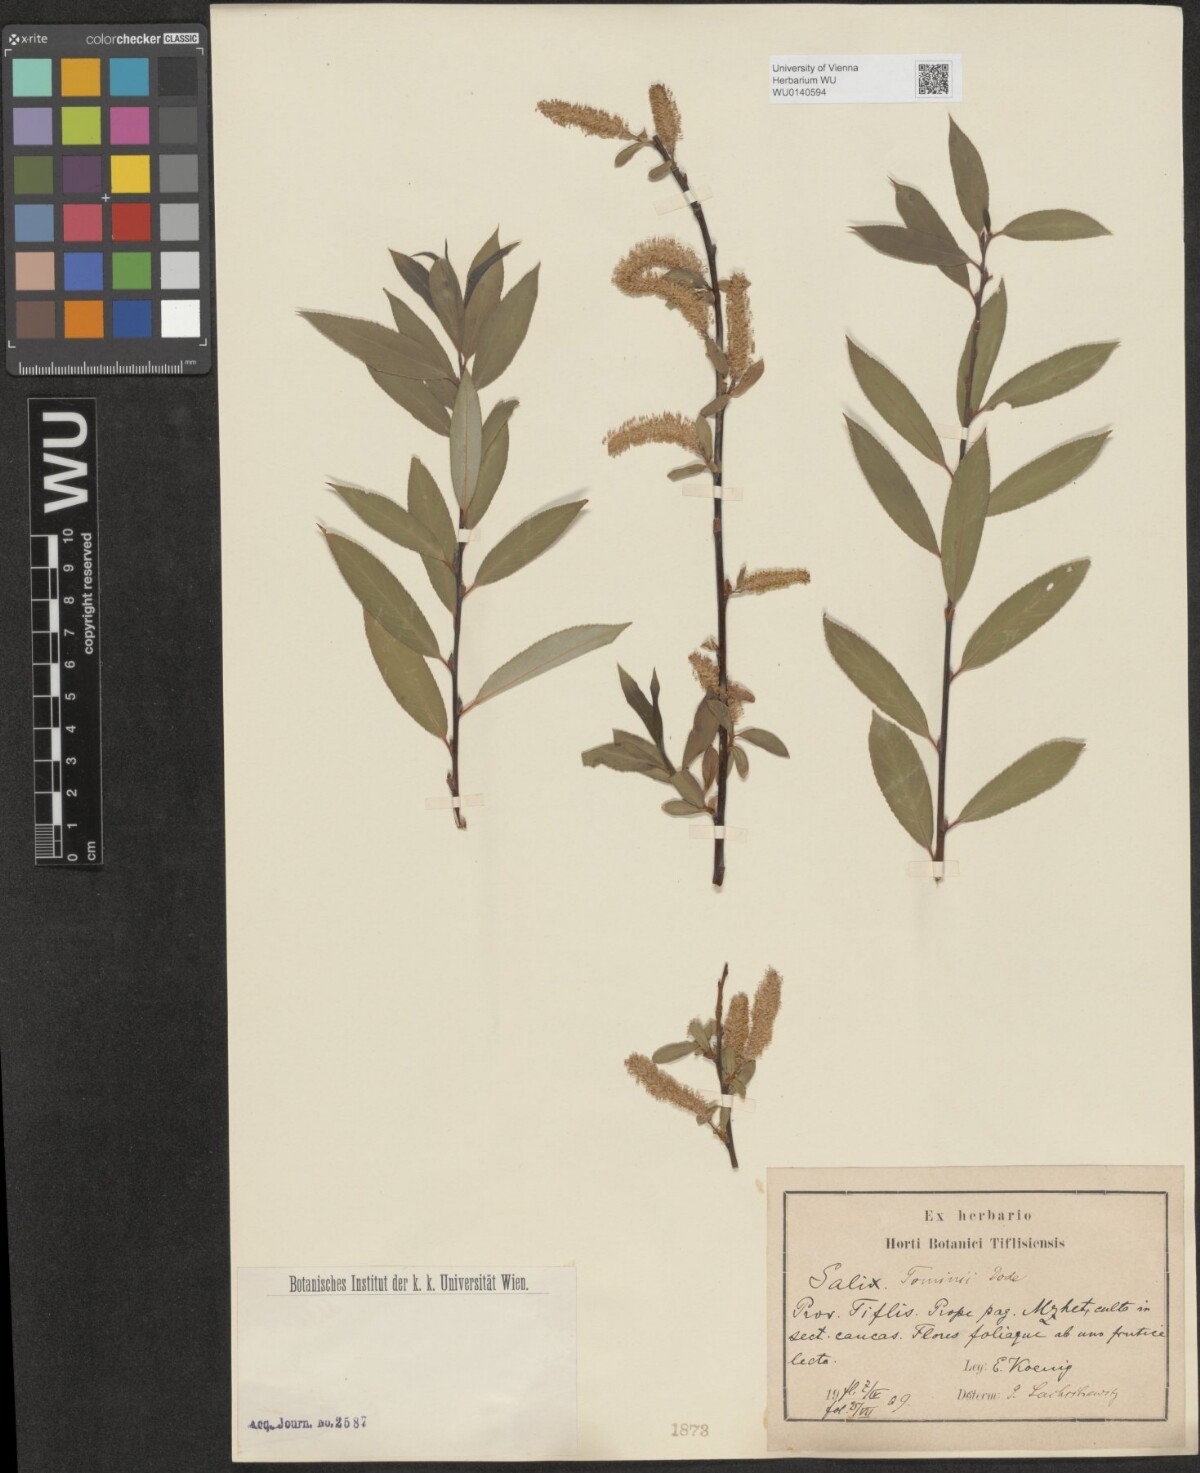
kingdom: Plantae
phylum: Tracheophyta
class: Magnoliopsida
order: Malpighiales
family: Salicaceae
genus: Salix
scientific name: Salix tominii
